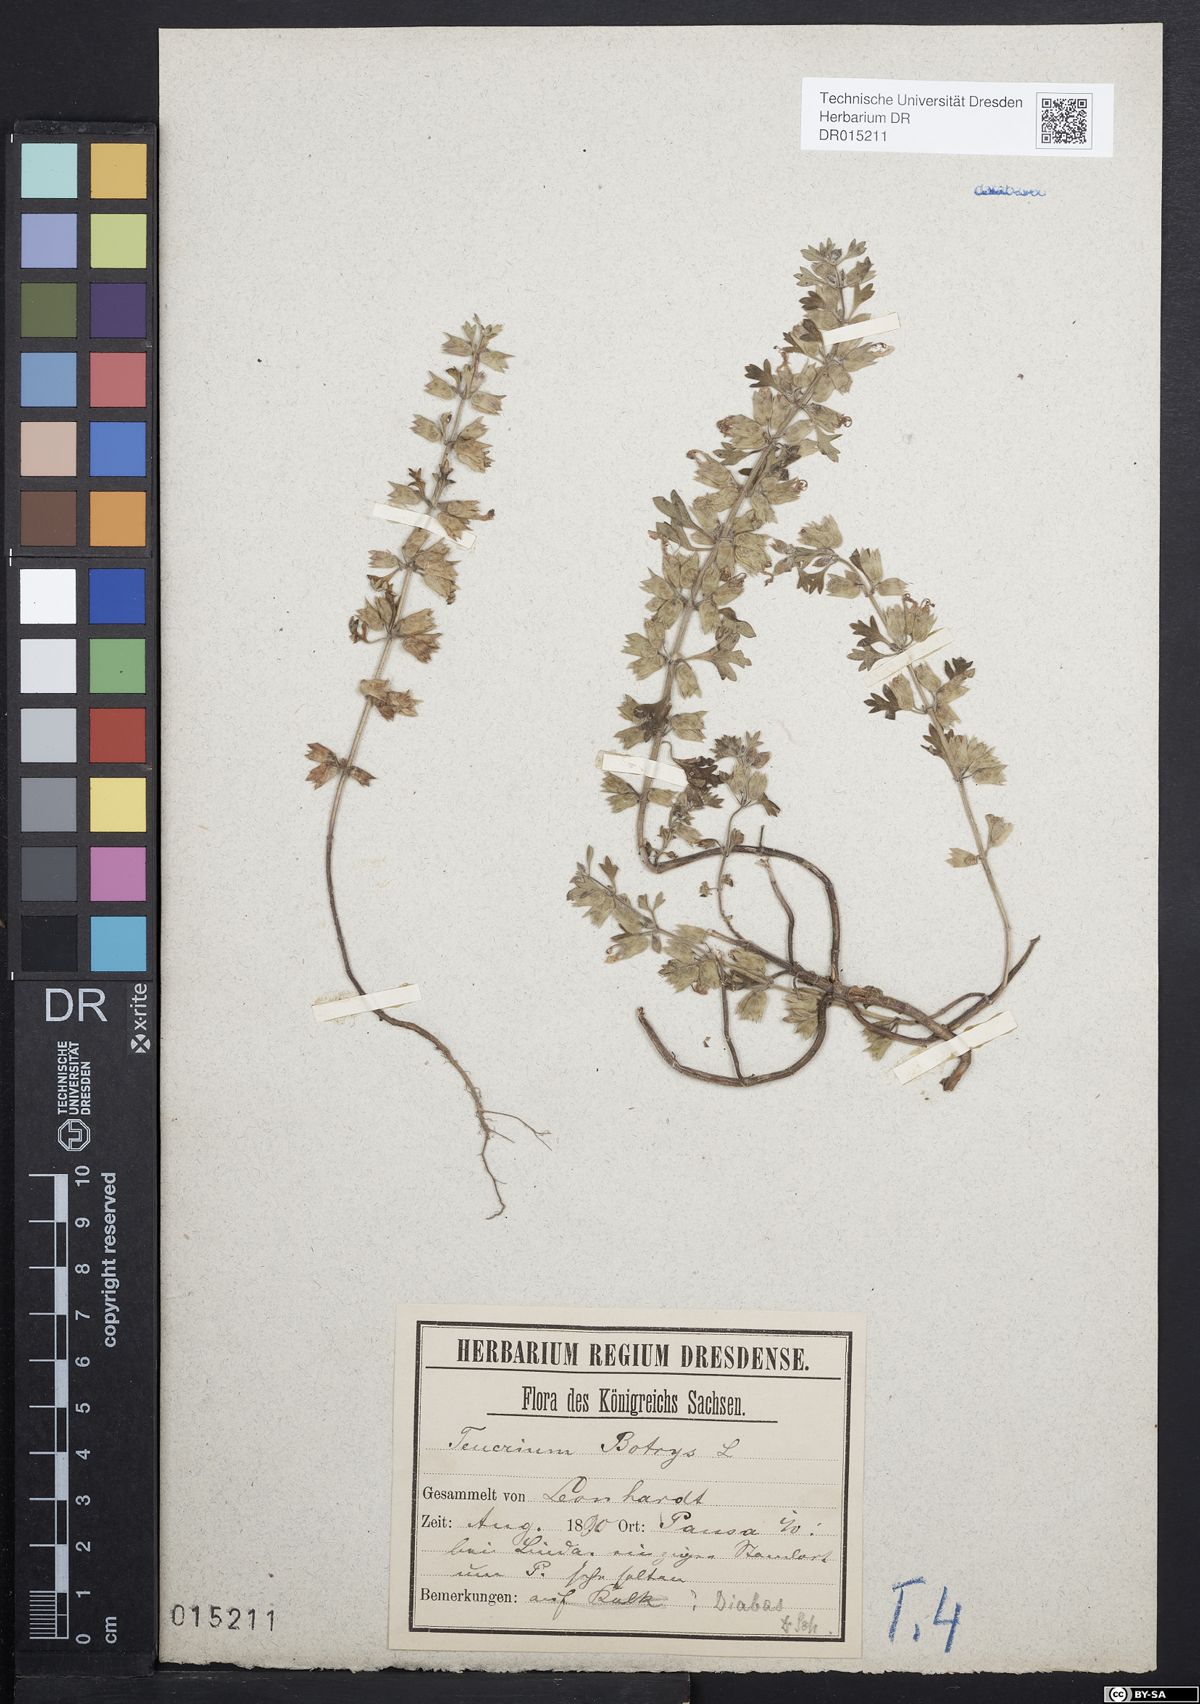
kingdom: Plantae
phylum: Tracheophyta
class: Magnoliopsida
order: Lamiales
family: Lamiaceae
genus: Teucrium
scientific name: Teucrium botrys
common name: Cut-leaved germander
